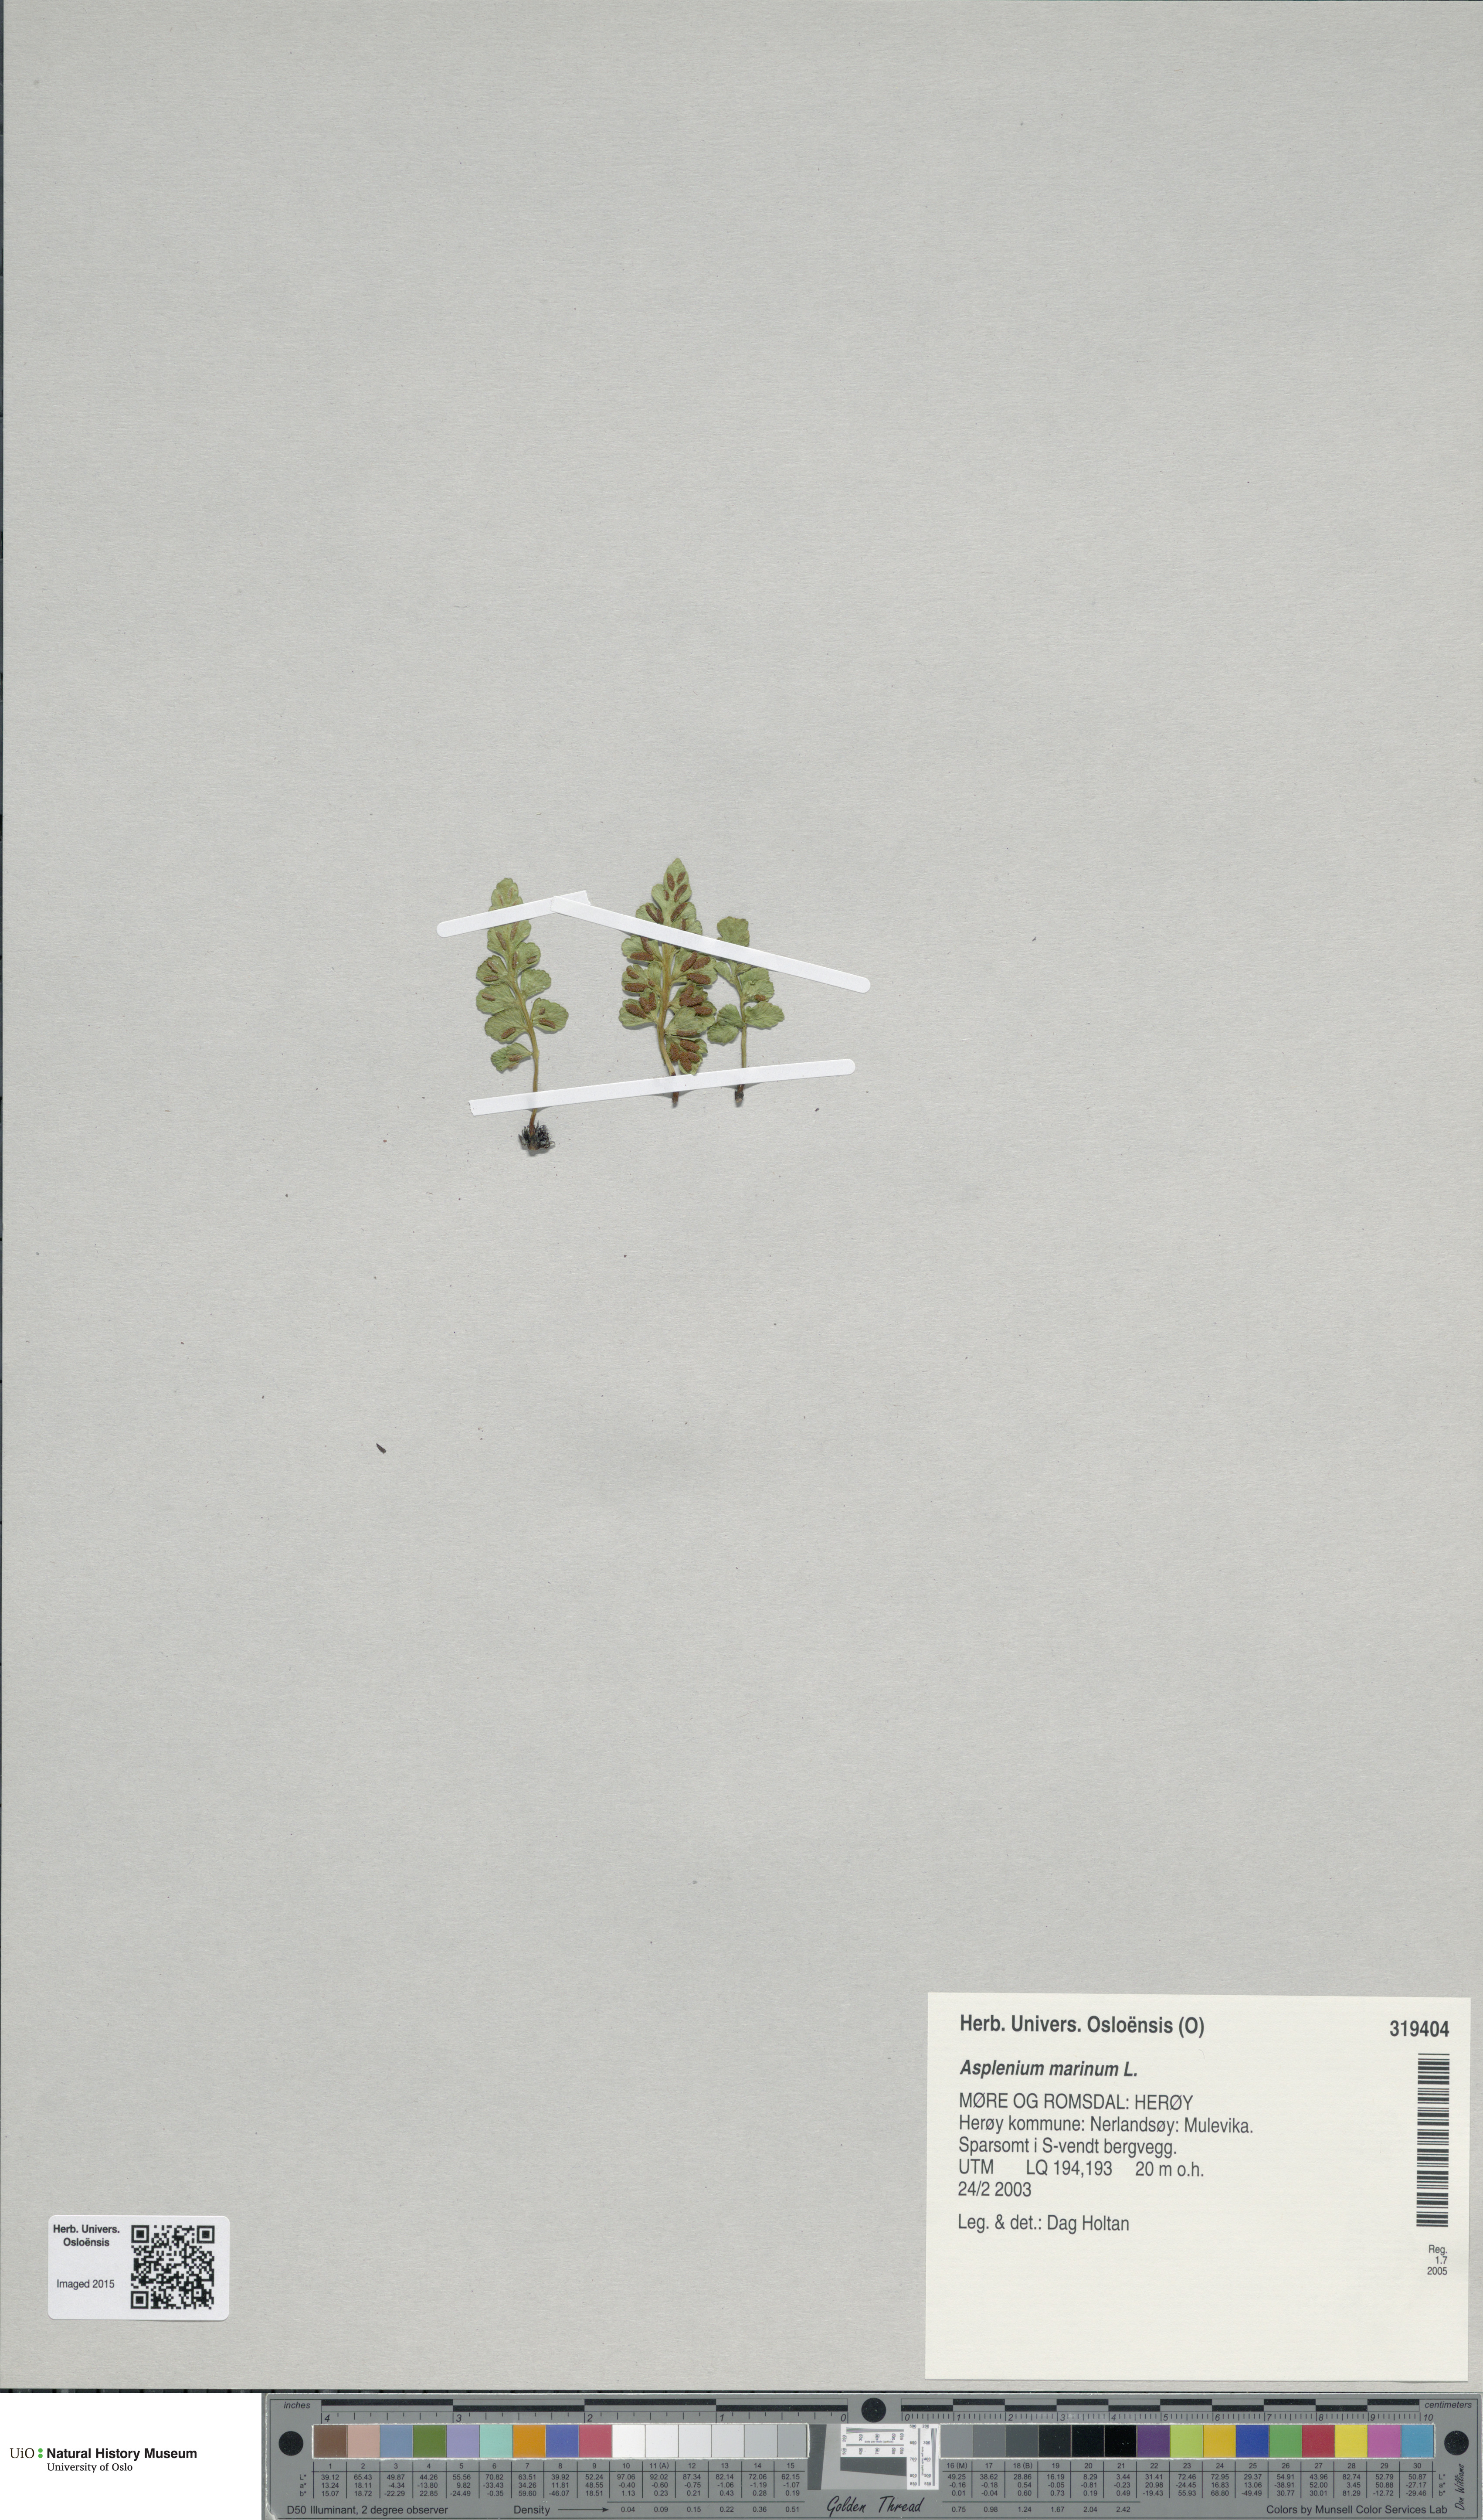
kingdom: Plantae
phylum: Tracheophyta
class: Polypodiopsida
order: Polypodiales
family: Aspleniaceae
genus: Asplenium
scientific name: Asplenium marinum
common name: Sea spleenwort
